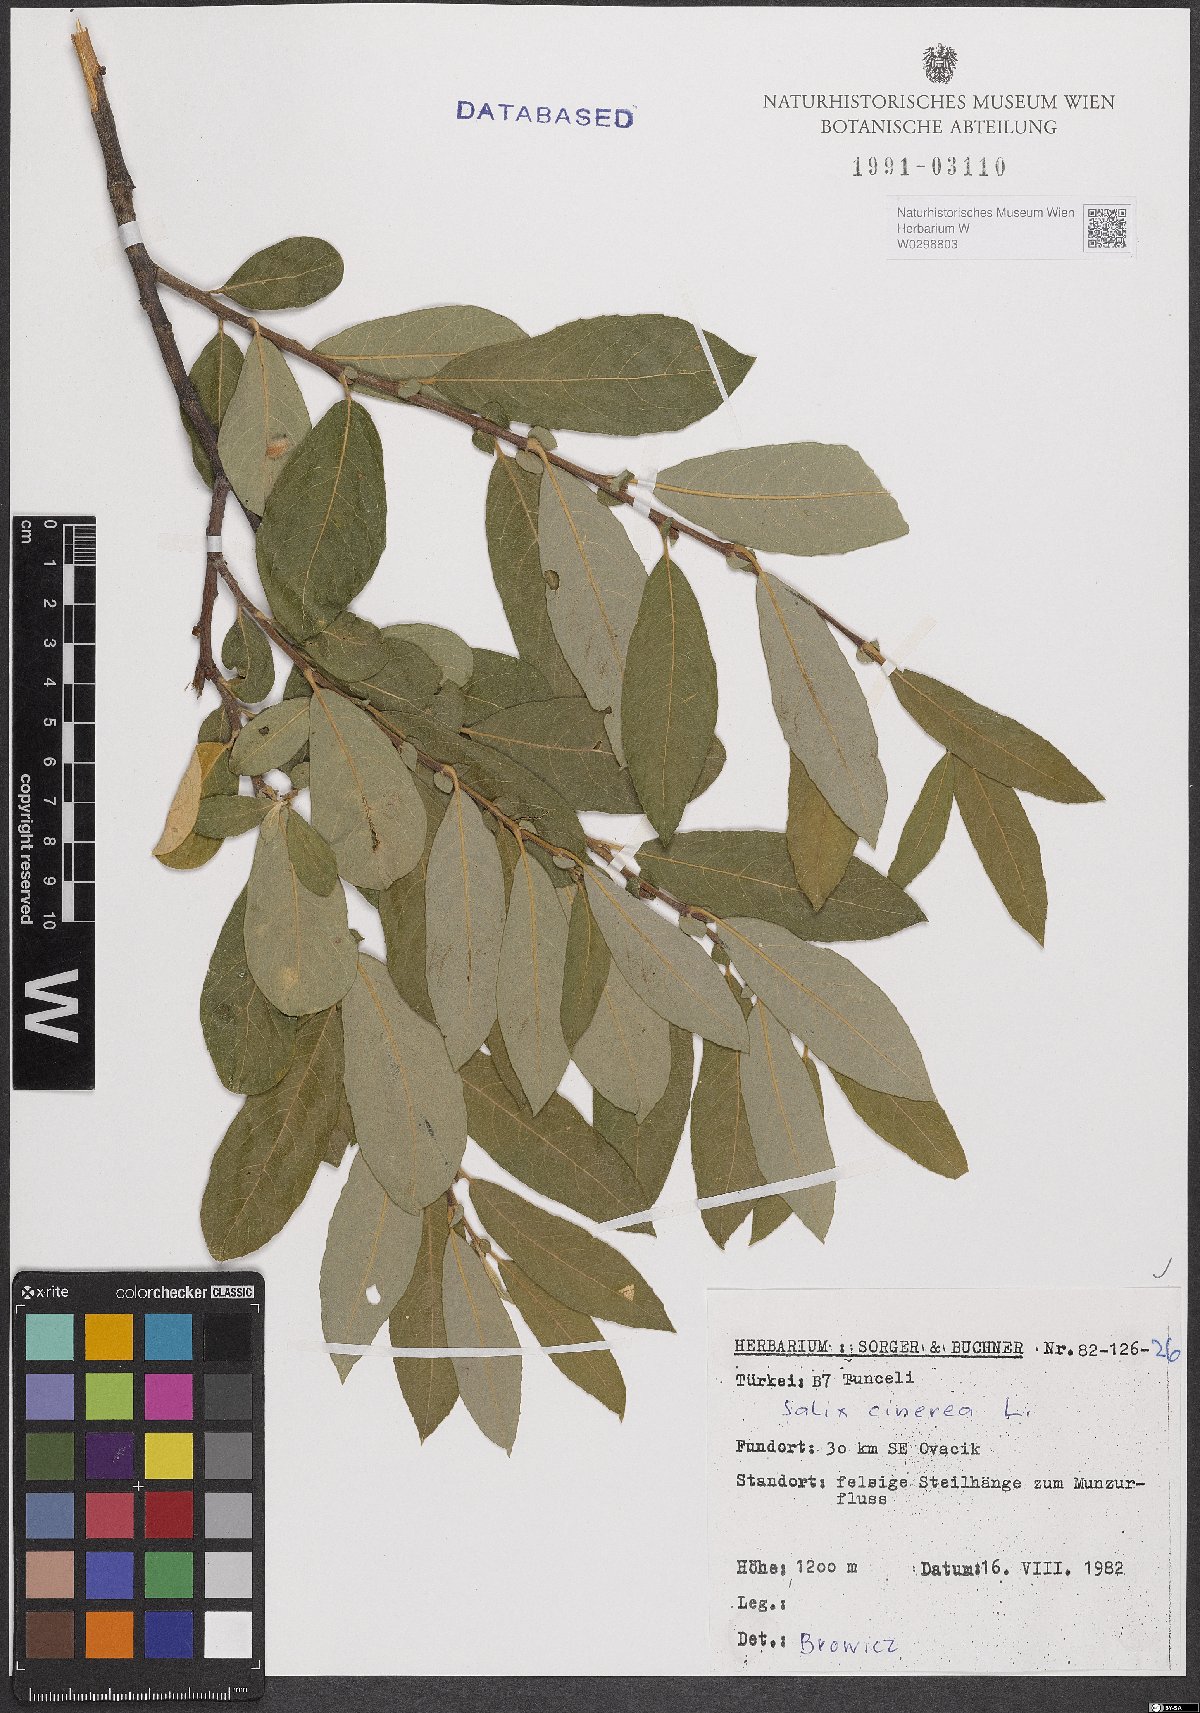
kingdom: Plantae
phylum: Tracheophyta
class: Magnoliopsida
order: Malpighiales
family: Salicaceae
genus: Salix
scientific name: Salix cinerea
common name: Common sallow
